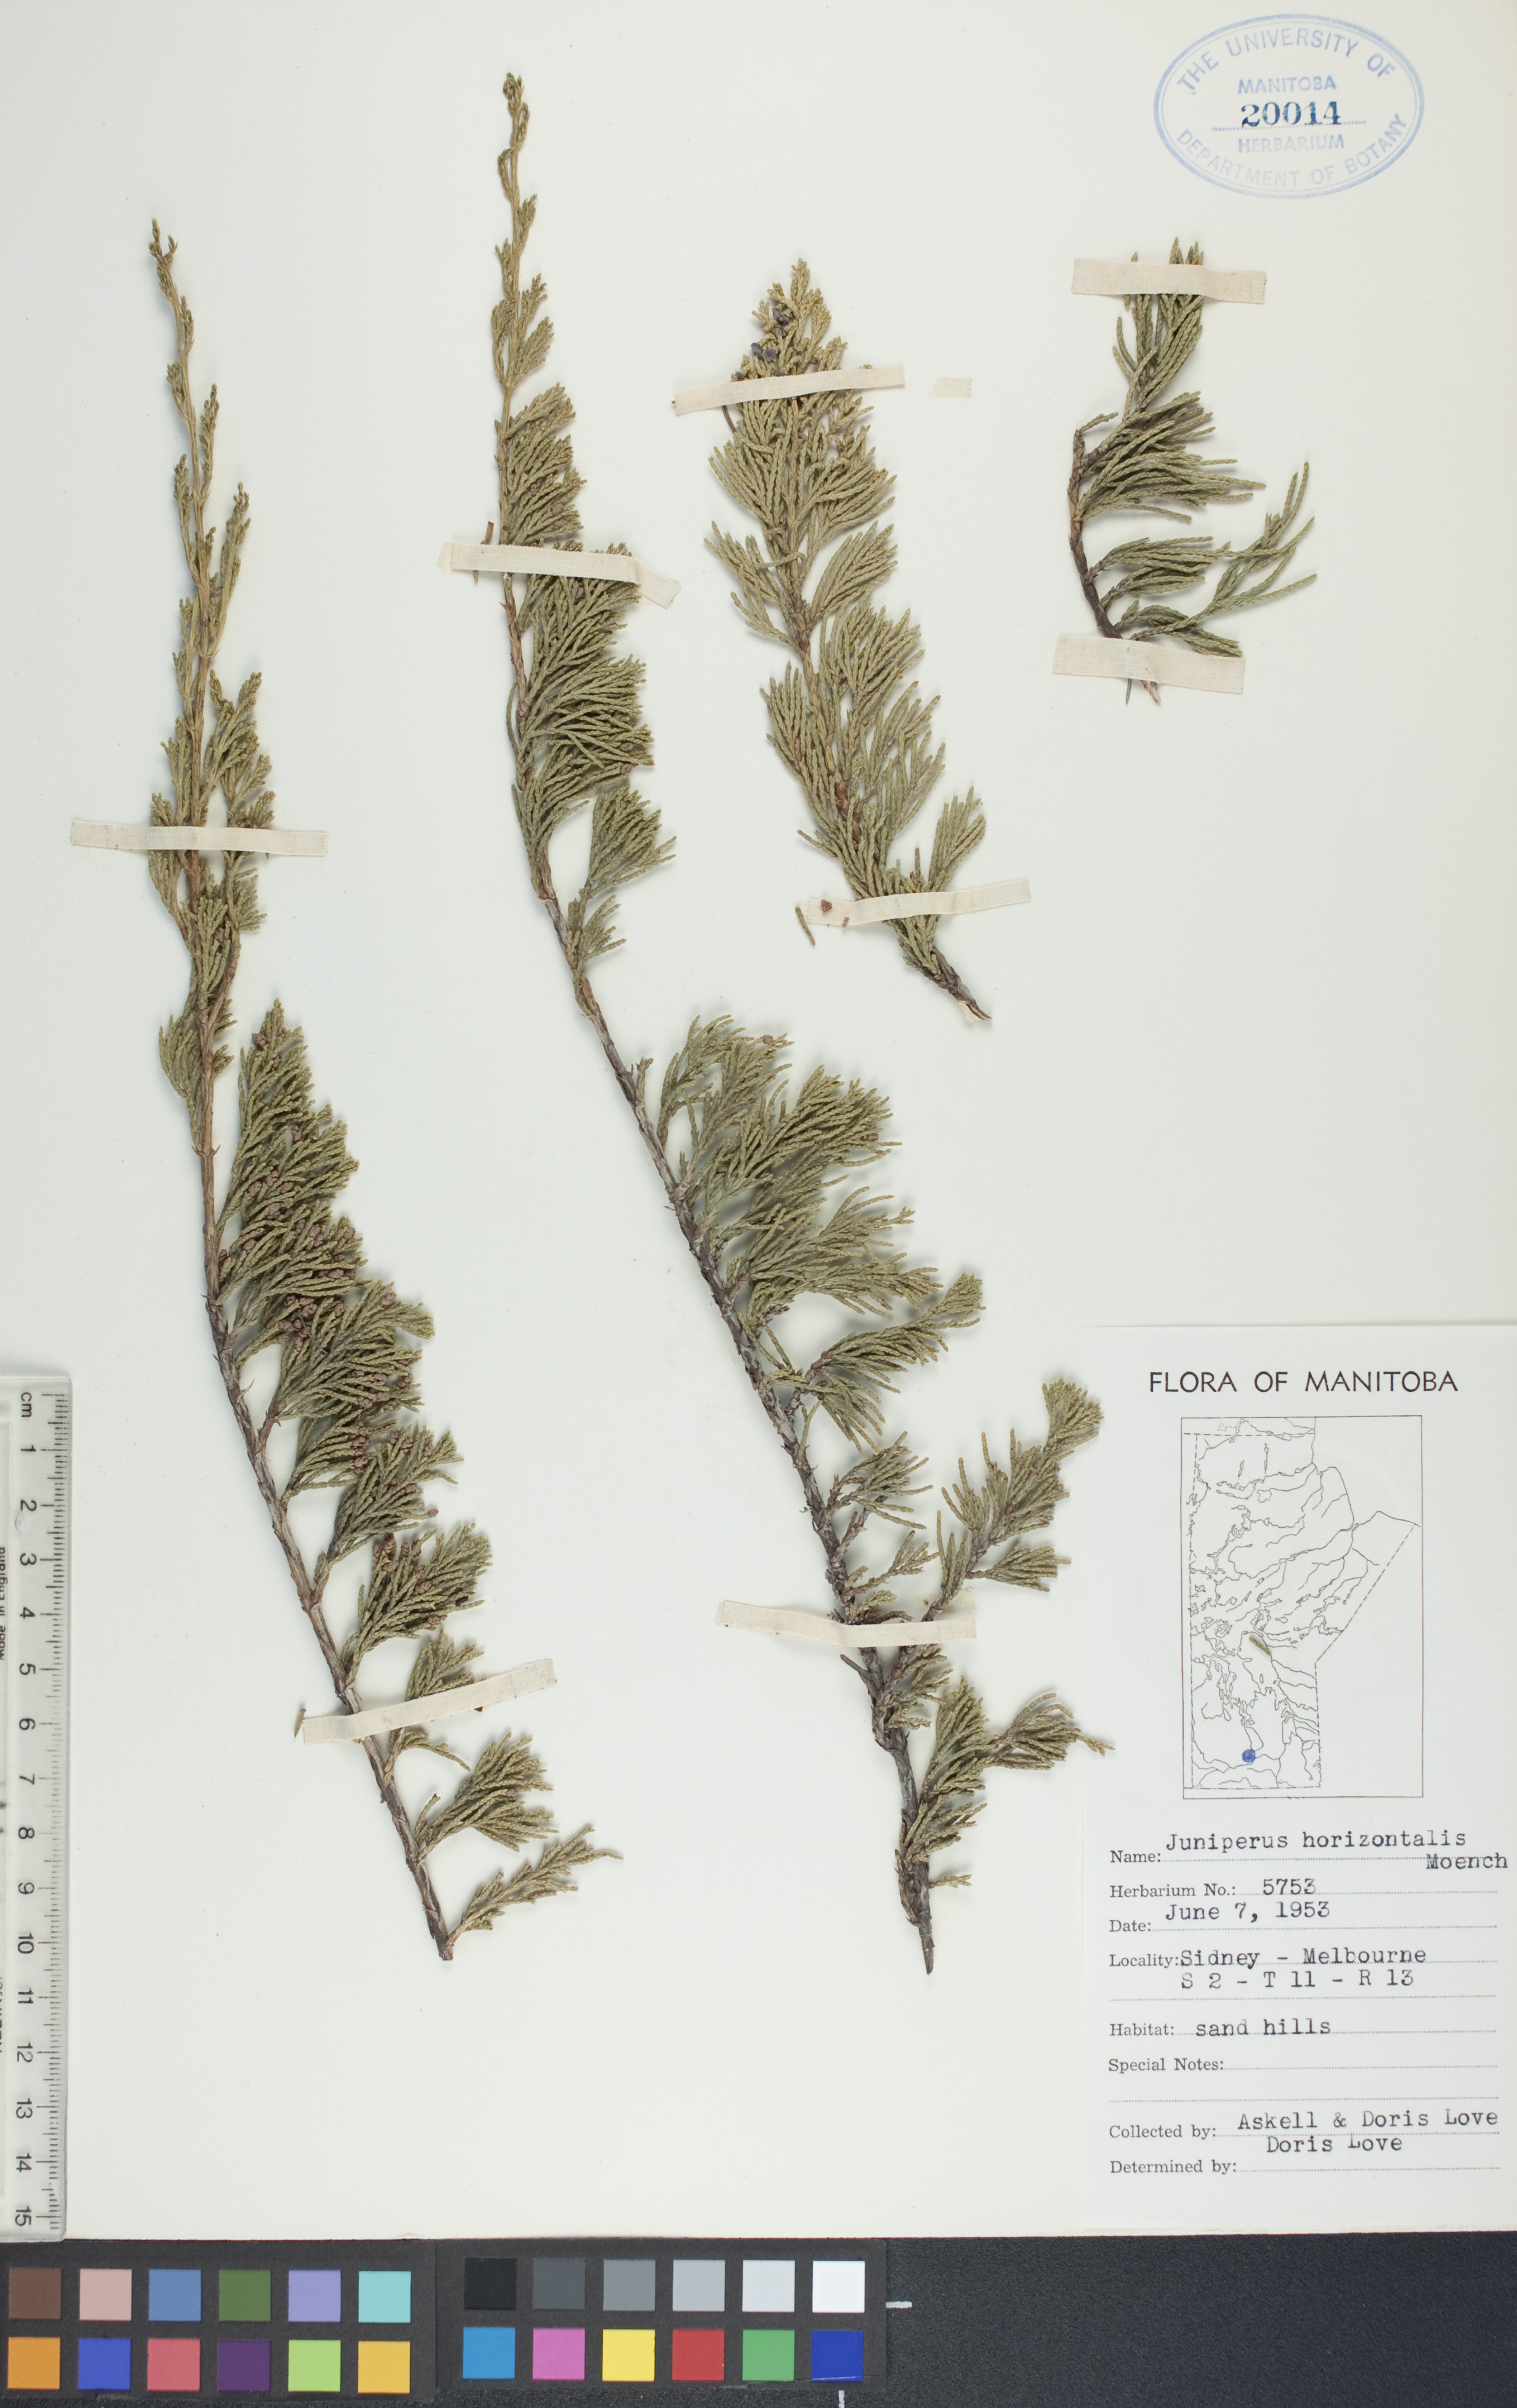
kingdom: Plantae
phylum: Tracheophyta
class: Pinopsida
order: Pinales
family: Cupressaceae
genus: Juniperus
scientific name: Juniperus horizontalis
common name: Creeping juniper
